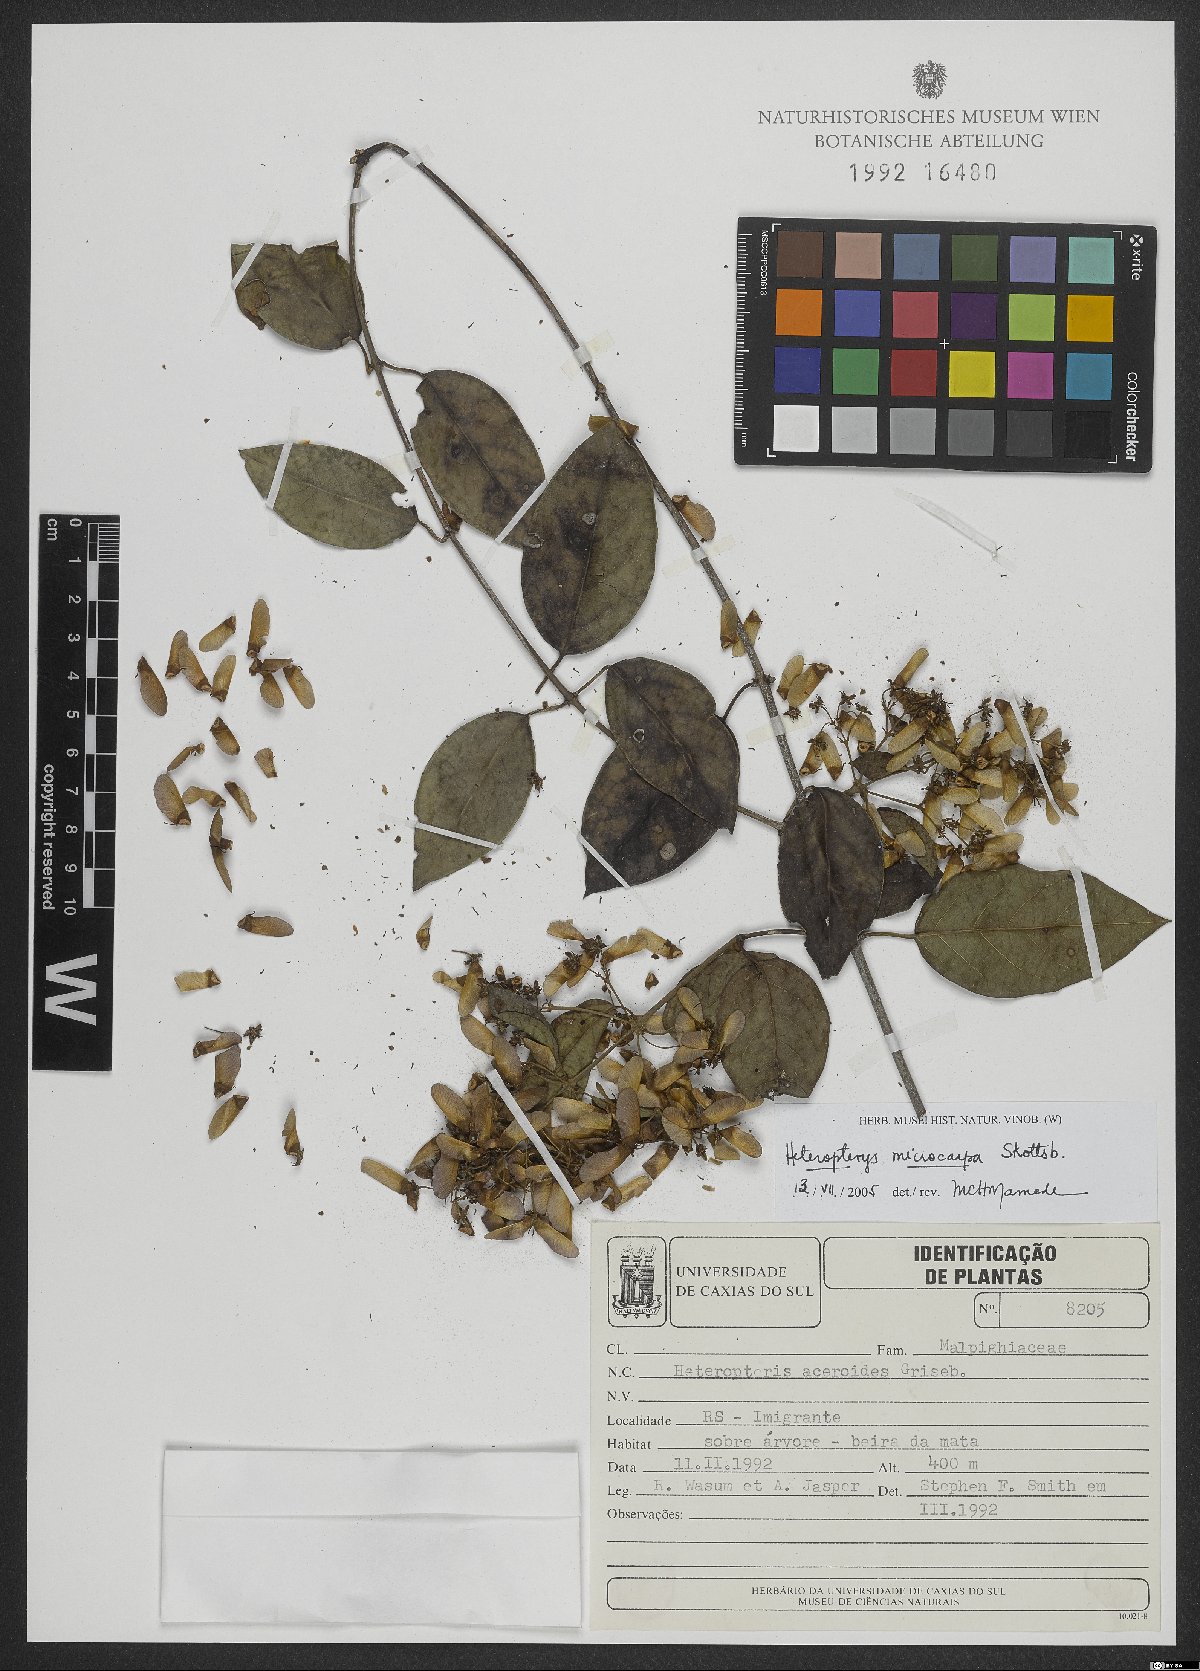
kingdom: Plantae
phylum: Tracheophyta
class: Magnoliopsida
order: Malpighiales
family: Malpighiaceae
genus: Heteropterys
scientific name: Heteropterys leschenaultiana
